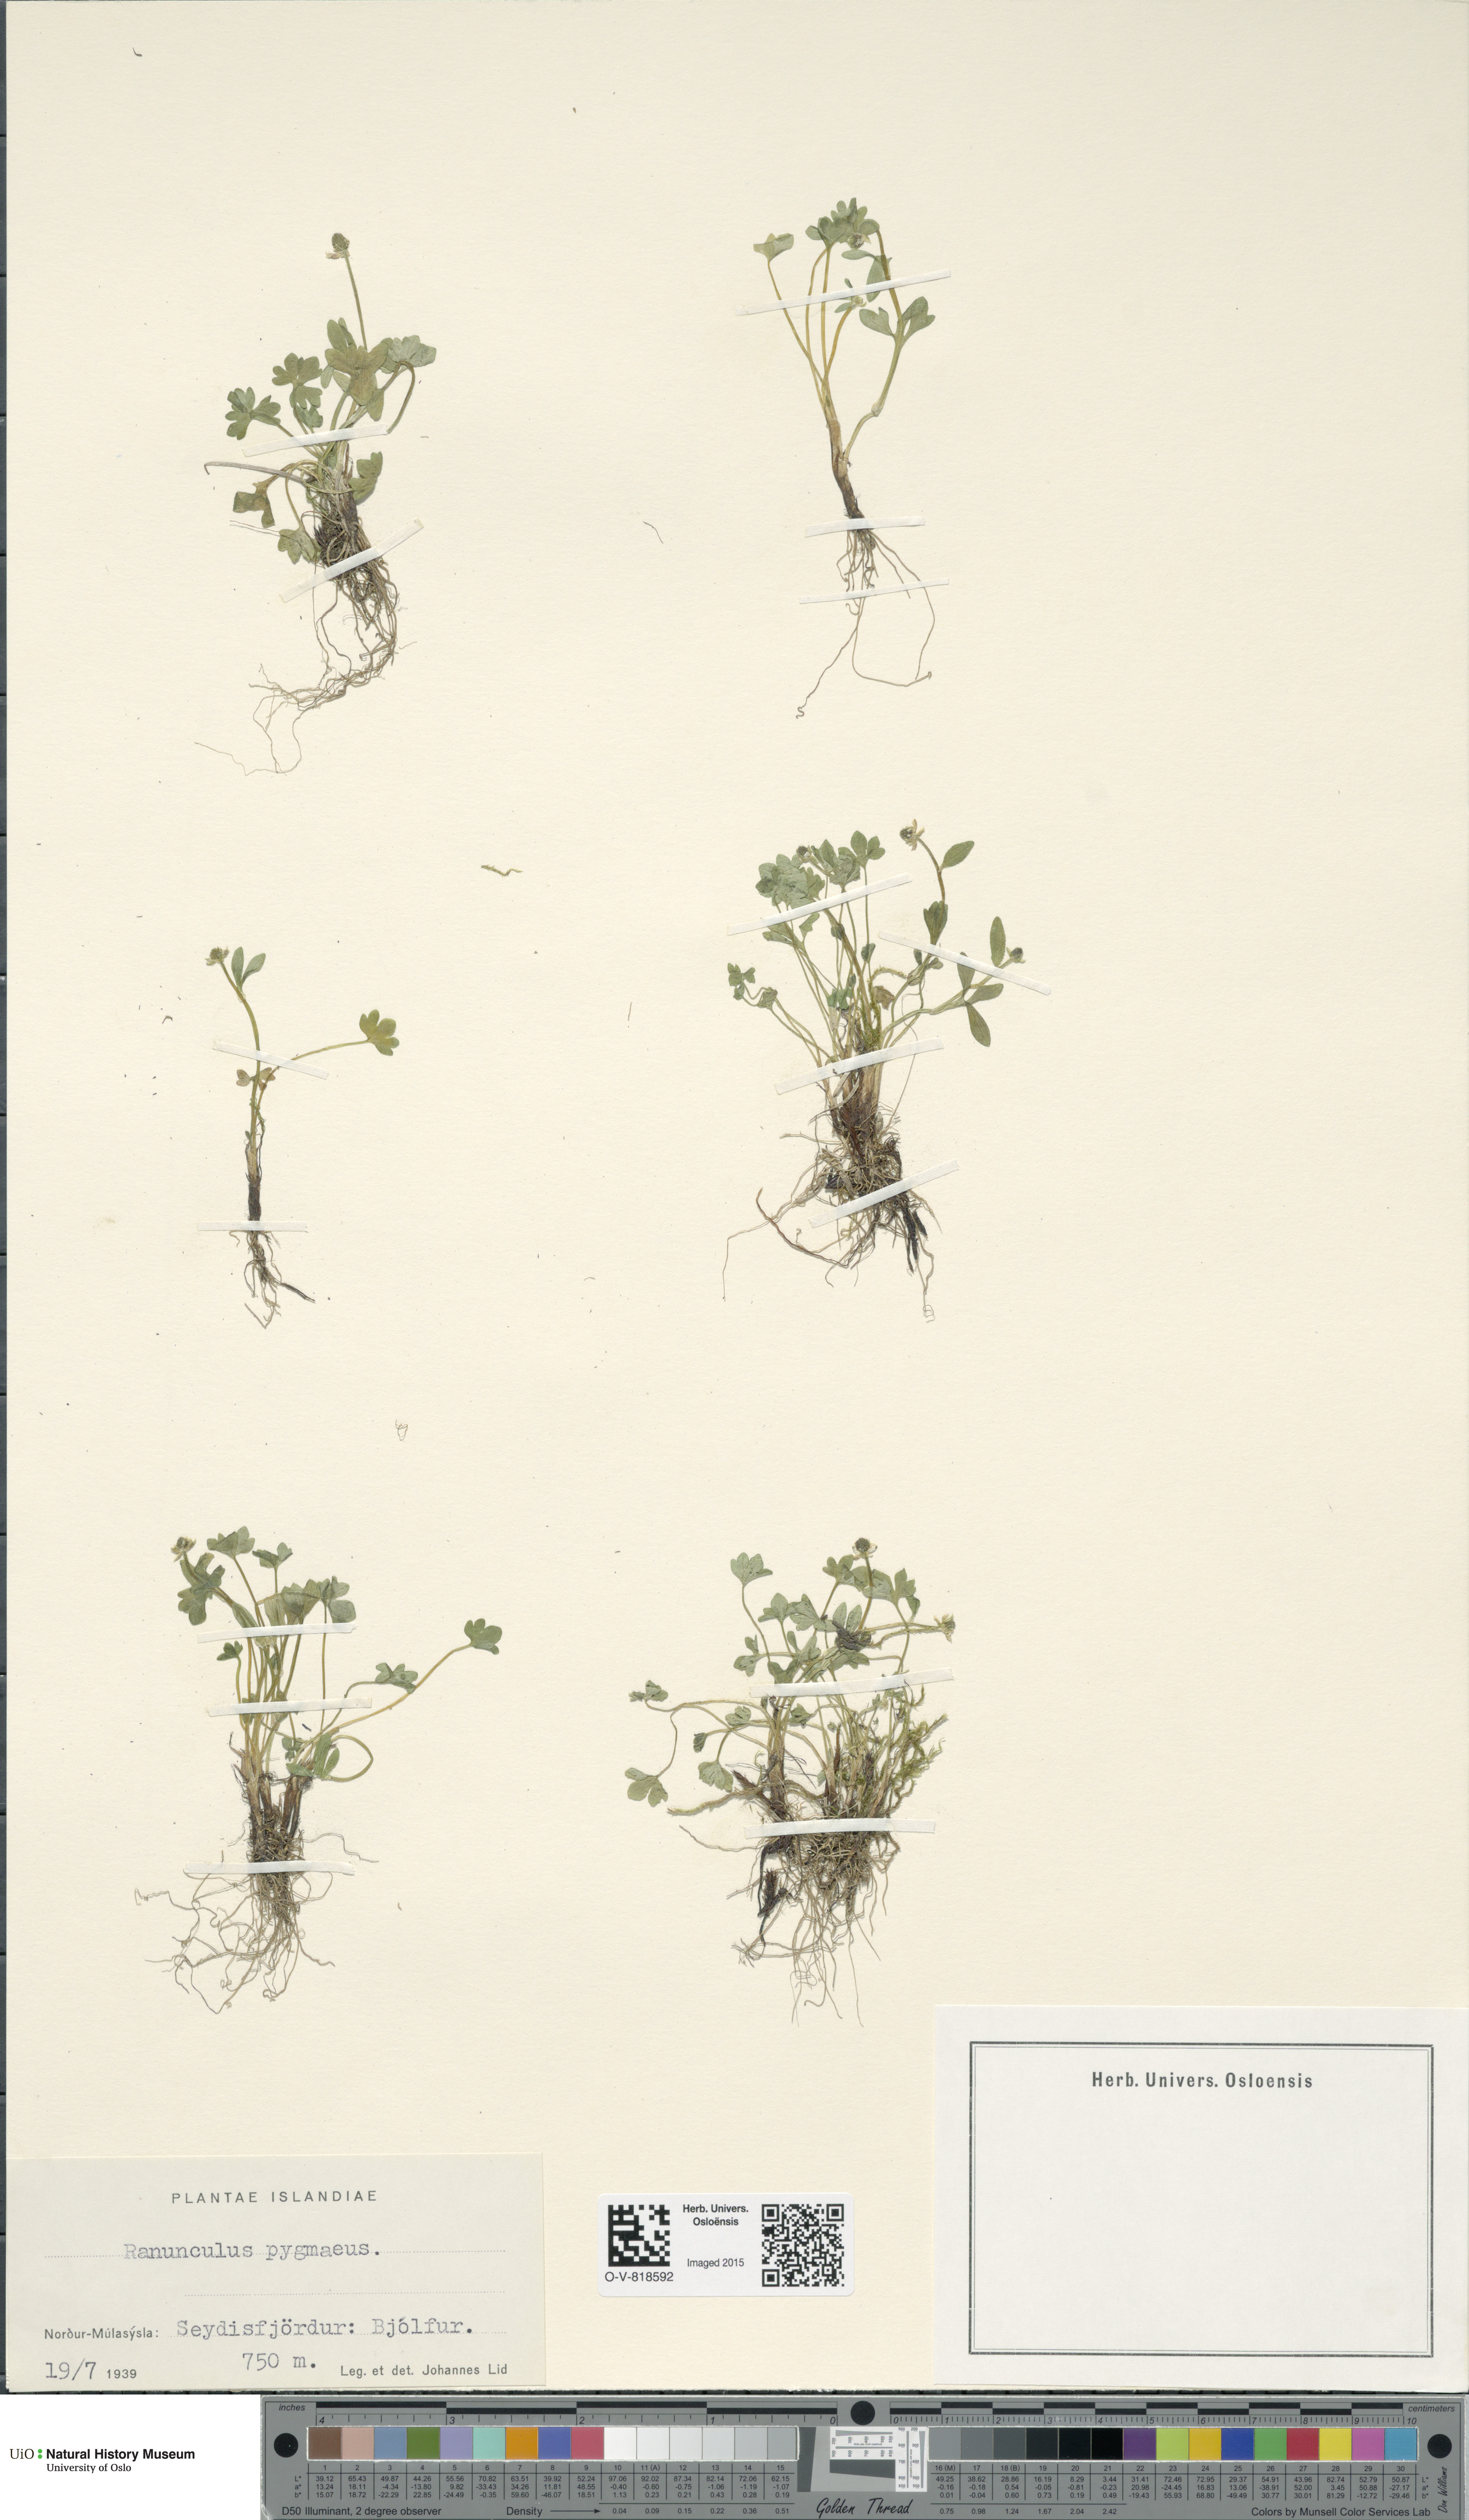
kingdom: Plantae
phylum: Tracheophyta
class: Magnoliopsida
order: Ranunculales
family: Ranunculaceae
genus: Ranunculus
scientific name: Ranunculus pygmaeus
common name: Dwarf buttercup
